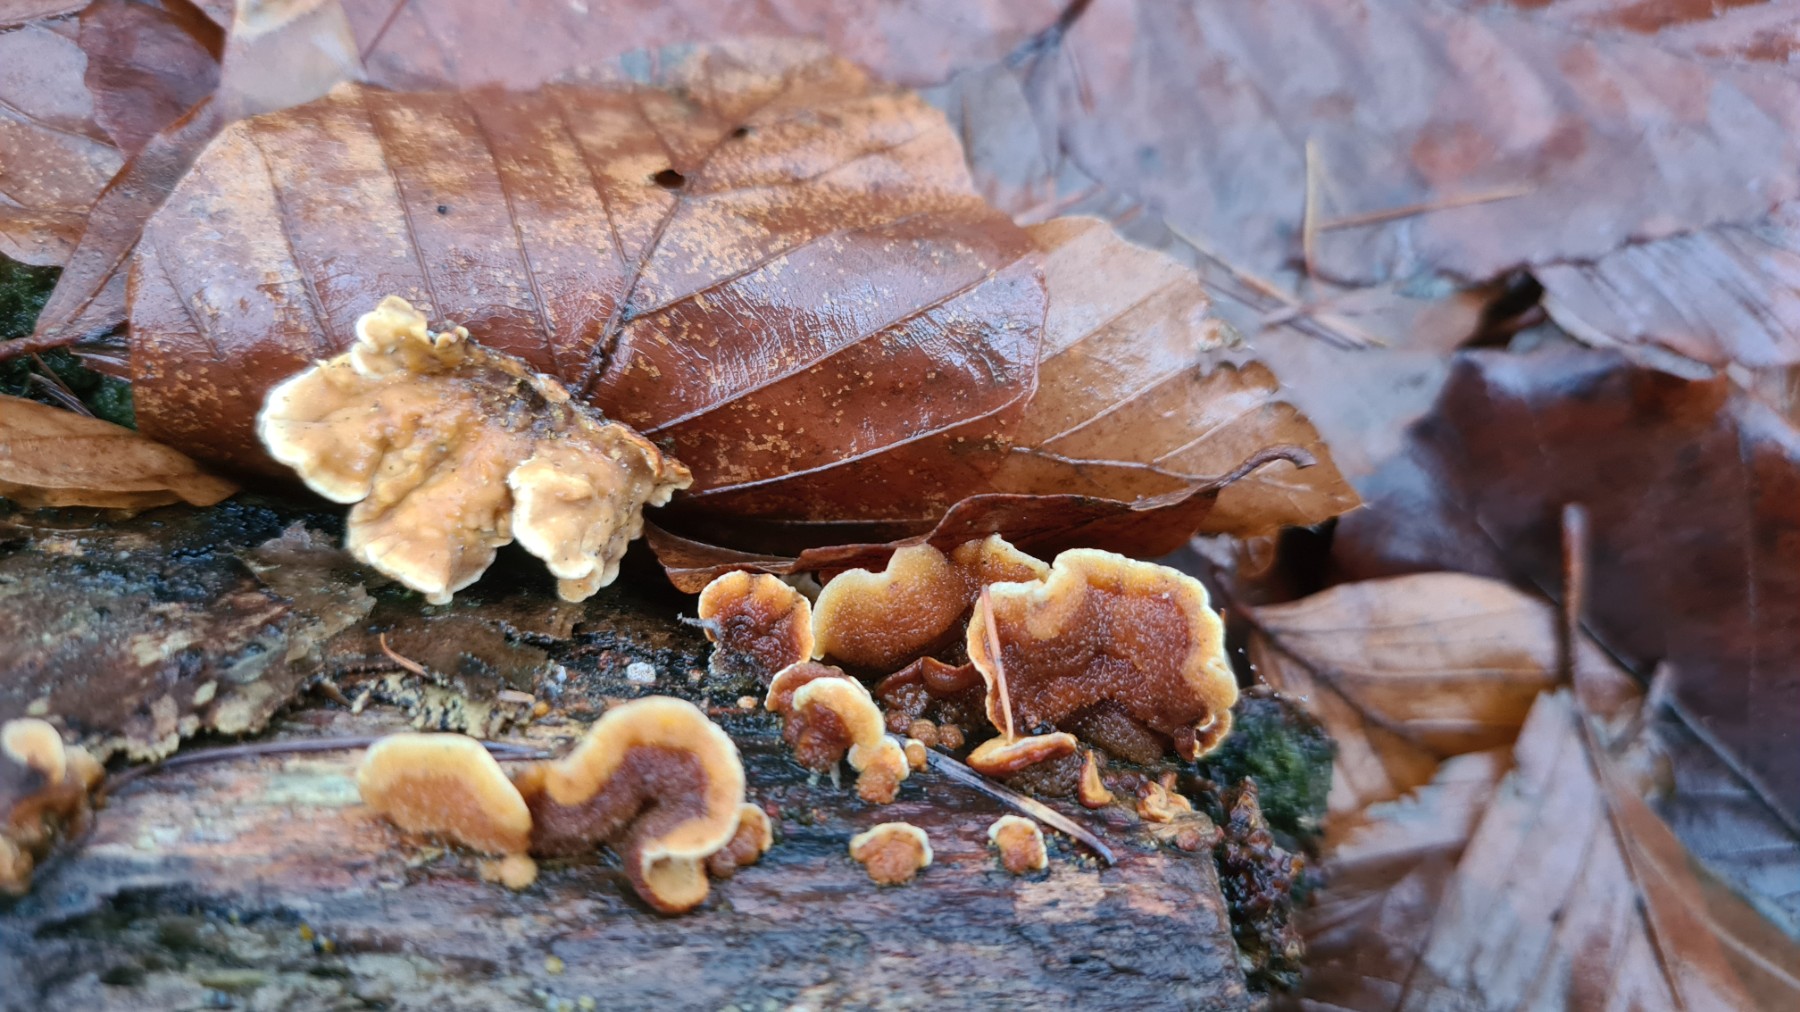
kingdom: Fungi
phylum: Basidiomycota
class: Agaricomycetes
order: Russulales
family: Stereaceae
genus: Stereum
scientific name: Stereum hirsutum
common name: håret lædersvamp
